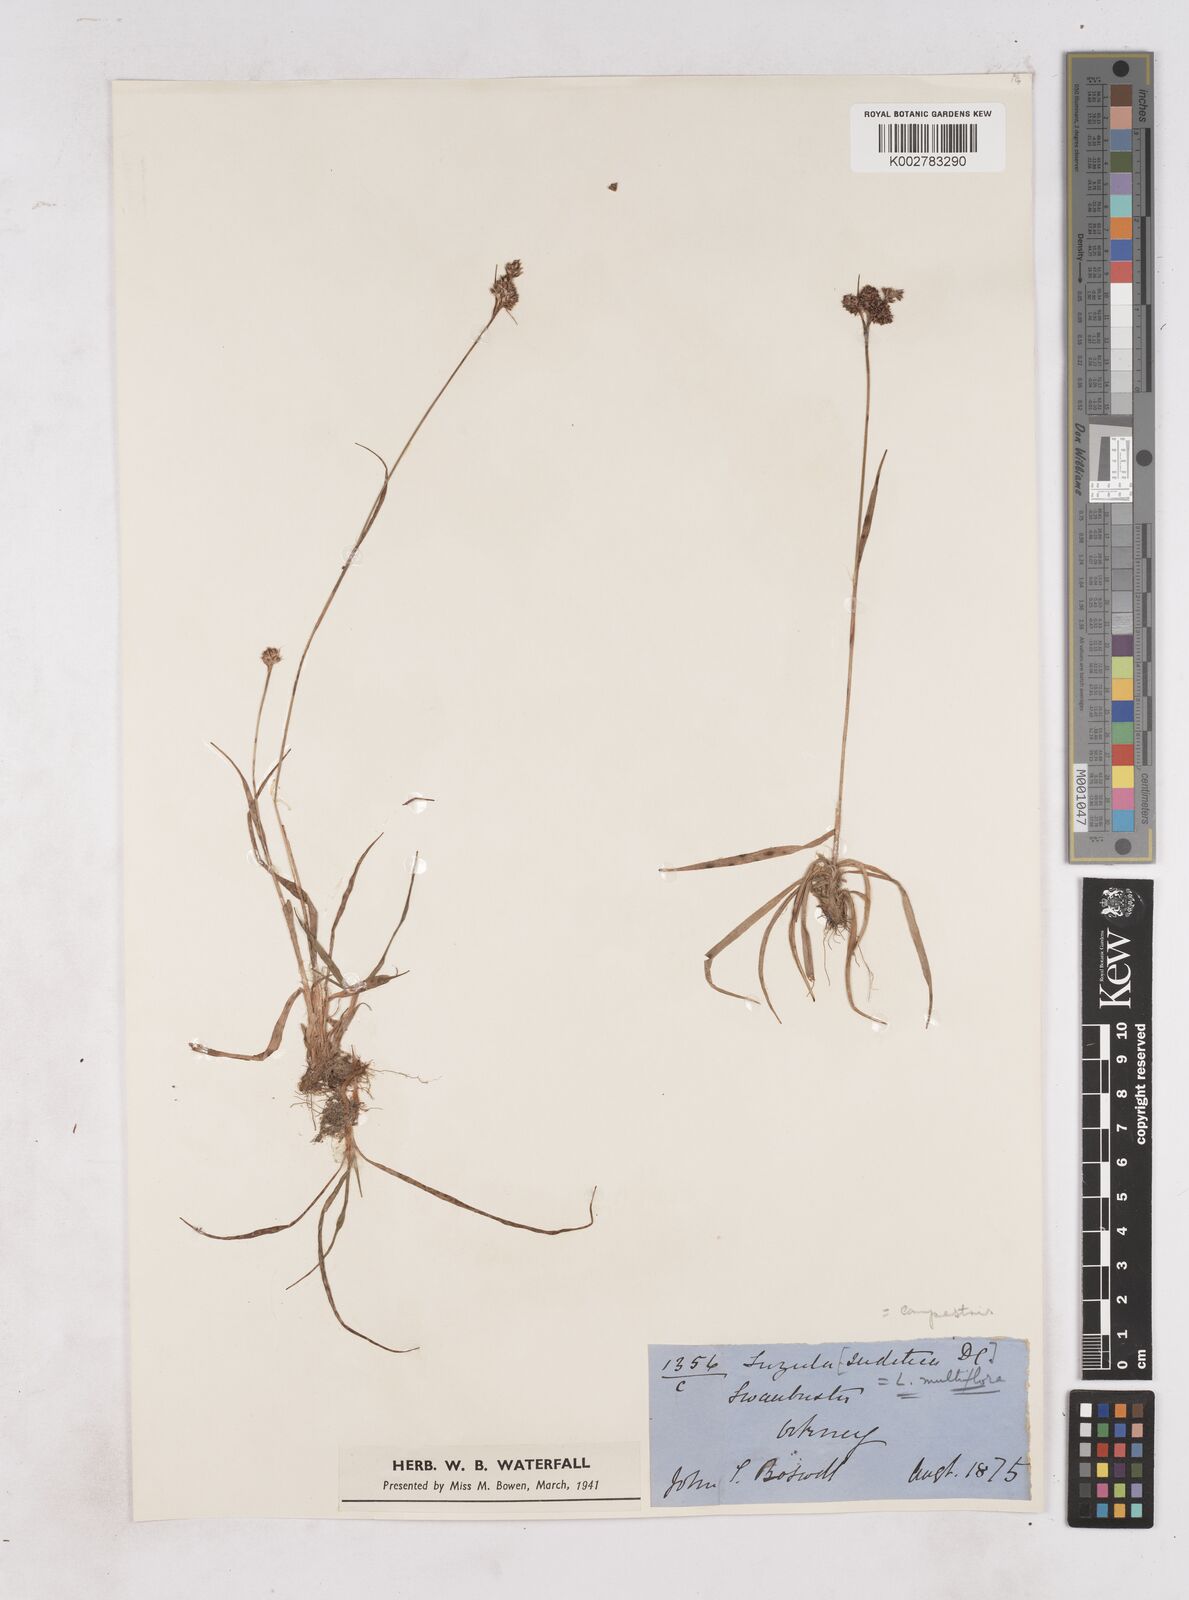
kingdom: Plantae
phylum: Tracheophyta
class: Liliopsida
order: Poales
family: Juncaceae
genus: Luzula
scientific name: Luzula multiflora
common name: Heath wood-rush
